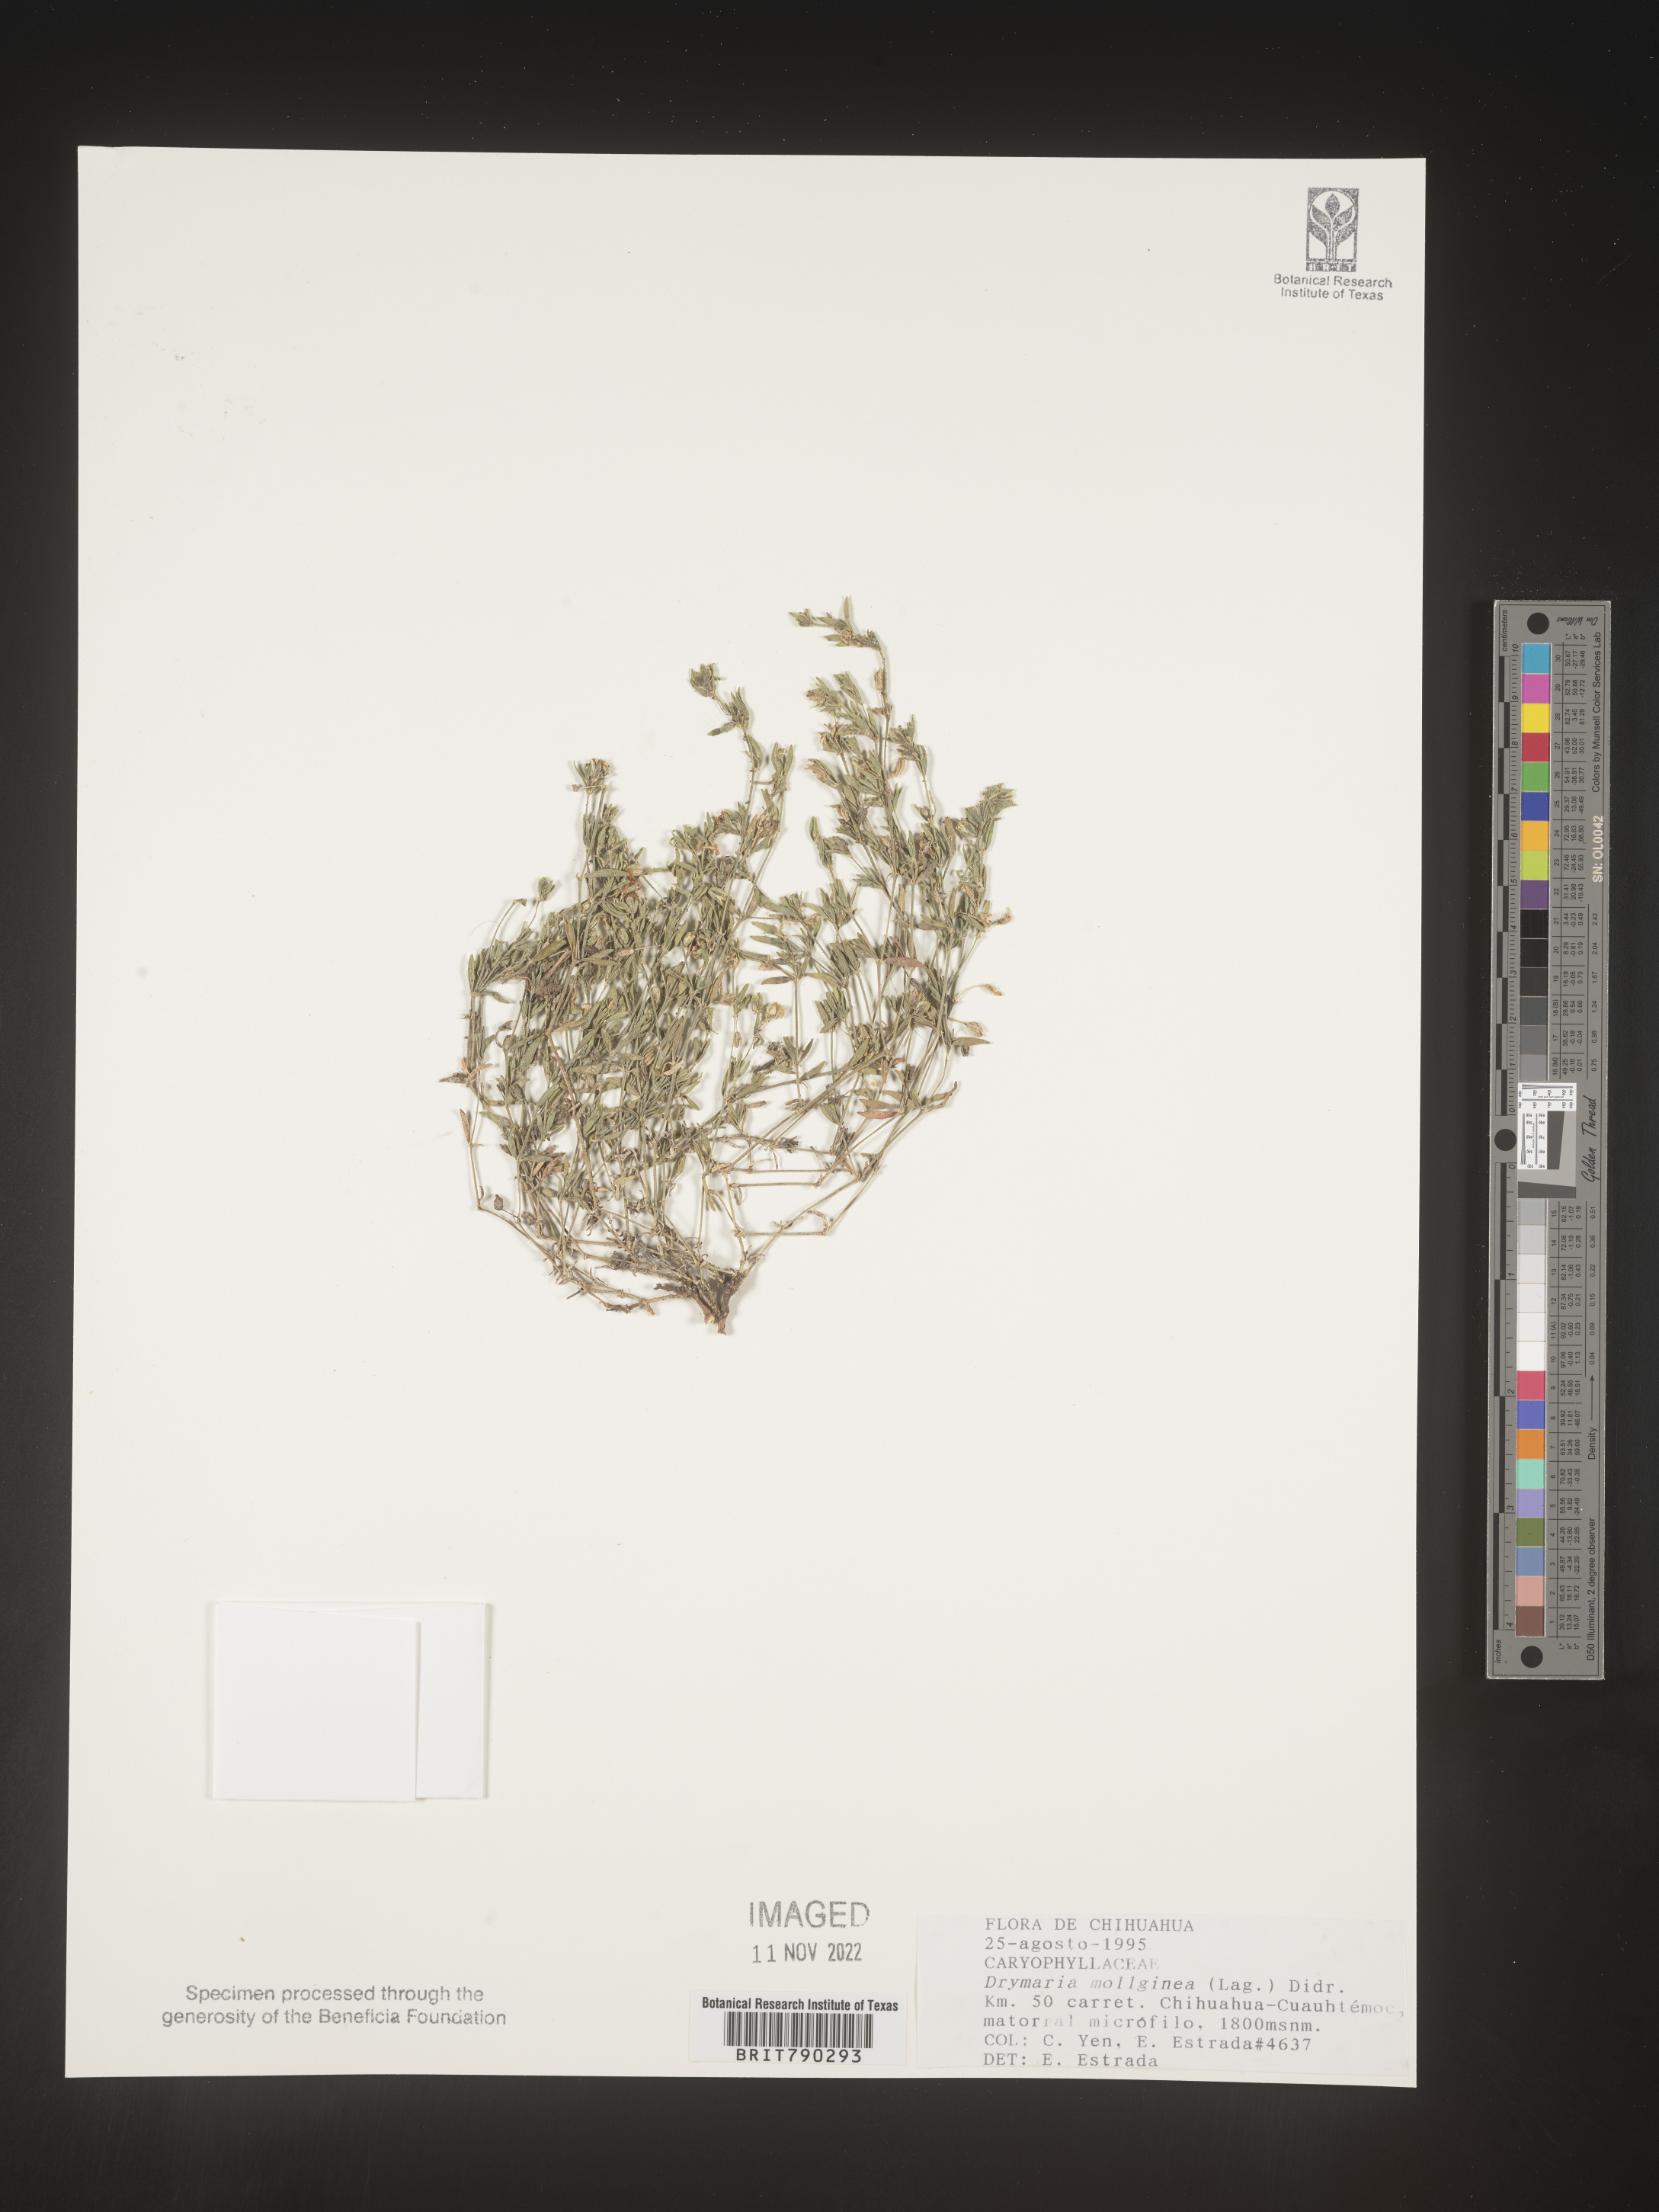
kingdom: Plantae
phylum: Tracheophyta
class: Magnoliopsida
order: Caryophyllales
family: Caryophyllaceae
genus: Drymaria
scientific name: Drymaria
